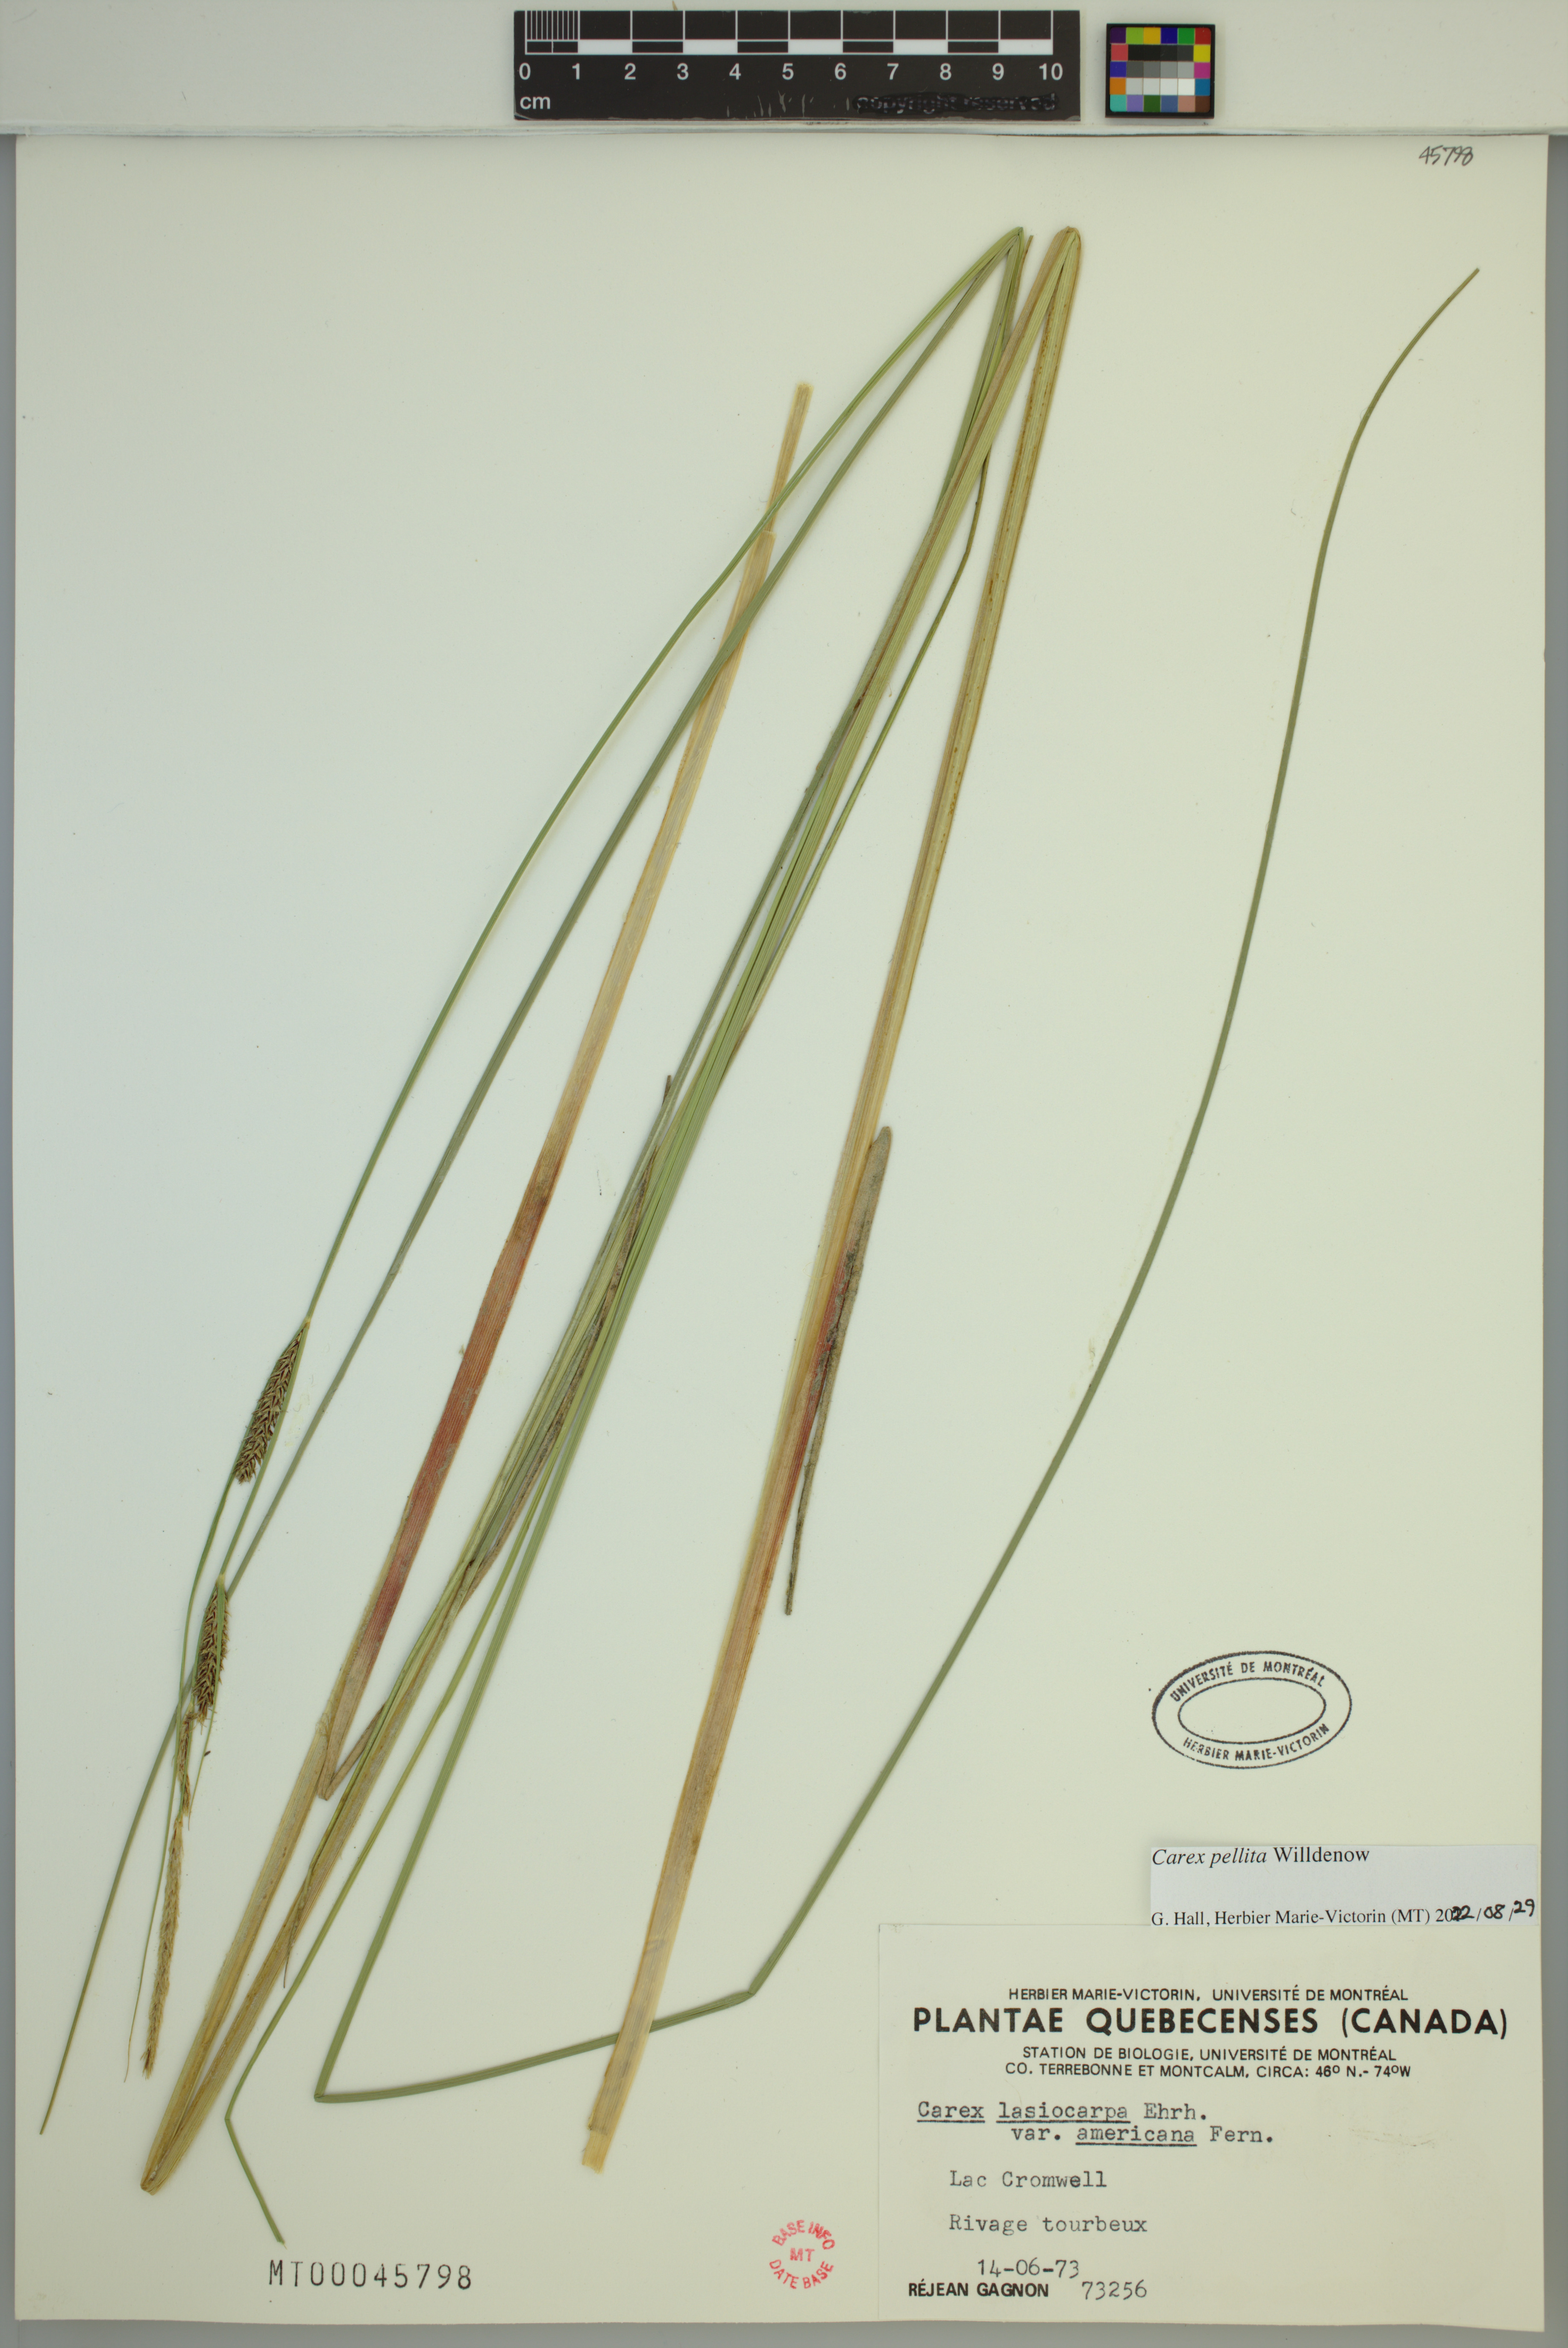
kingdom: Plantae
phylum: Tracheophyta
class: Liliopsida
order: Poales
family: Cyperaceae
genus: Carex
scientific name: Carex pellita
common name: Woolly sedge
